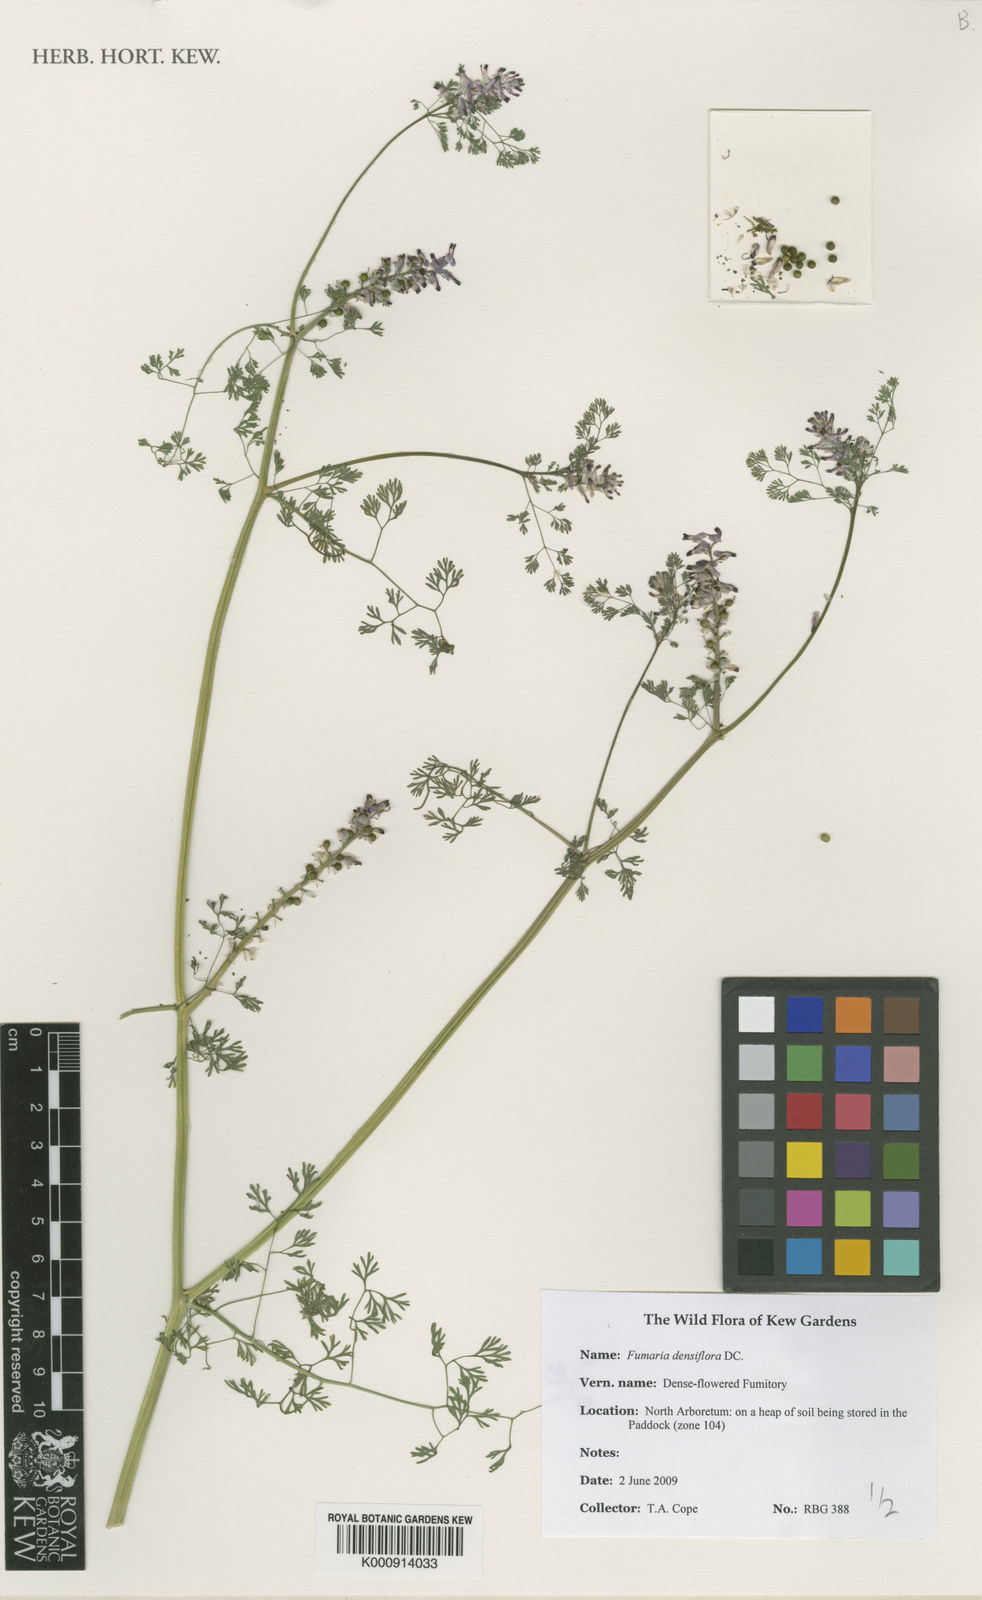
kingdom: Plantae
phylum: Tracheophyta
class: Magnoliopsida
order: Ranunculales
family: Papaveraceae
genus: Fumaria
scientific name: Fumaria densiflora
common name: Dense-flowered fumitory
